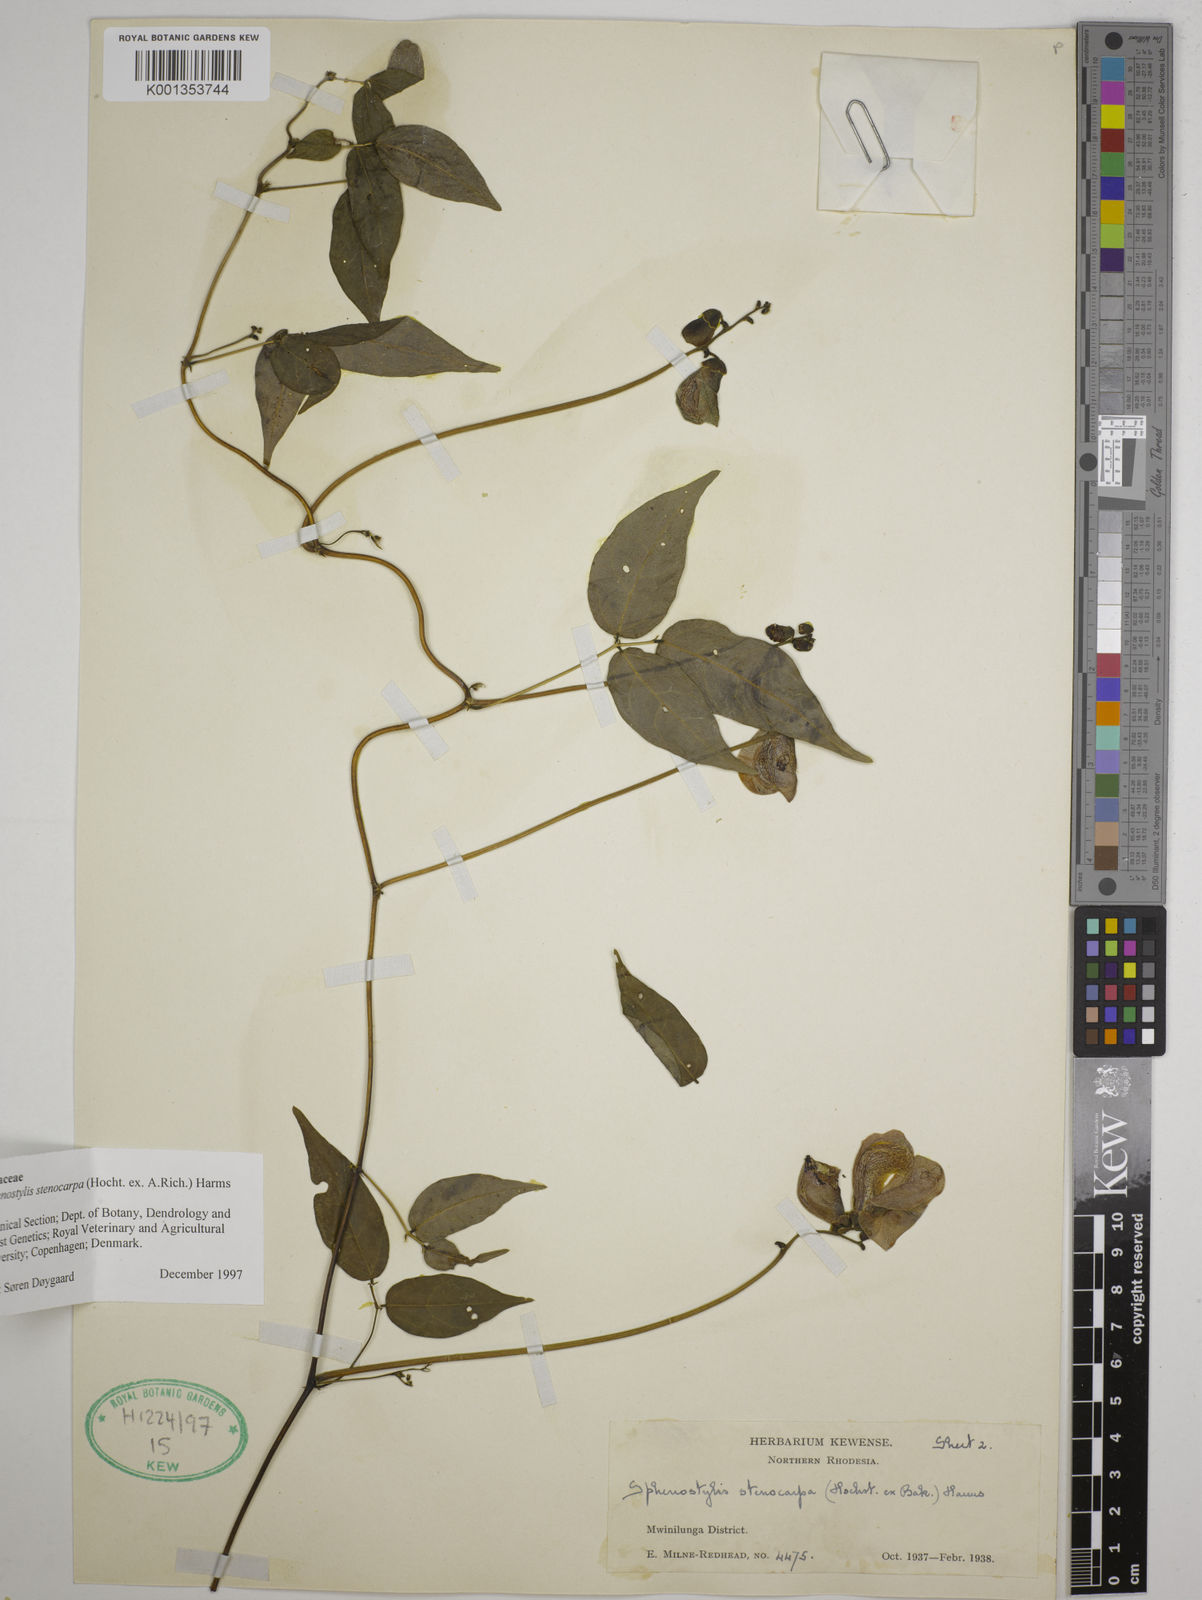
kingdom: Plantae
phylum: Tracheophyta
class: Magnoliopsida
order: Fabales
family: Fabaceae
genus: Sphenostylis
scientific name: Sphenostylis stenocarpa
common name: Yam-pea
